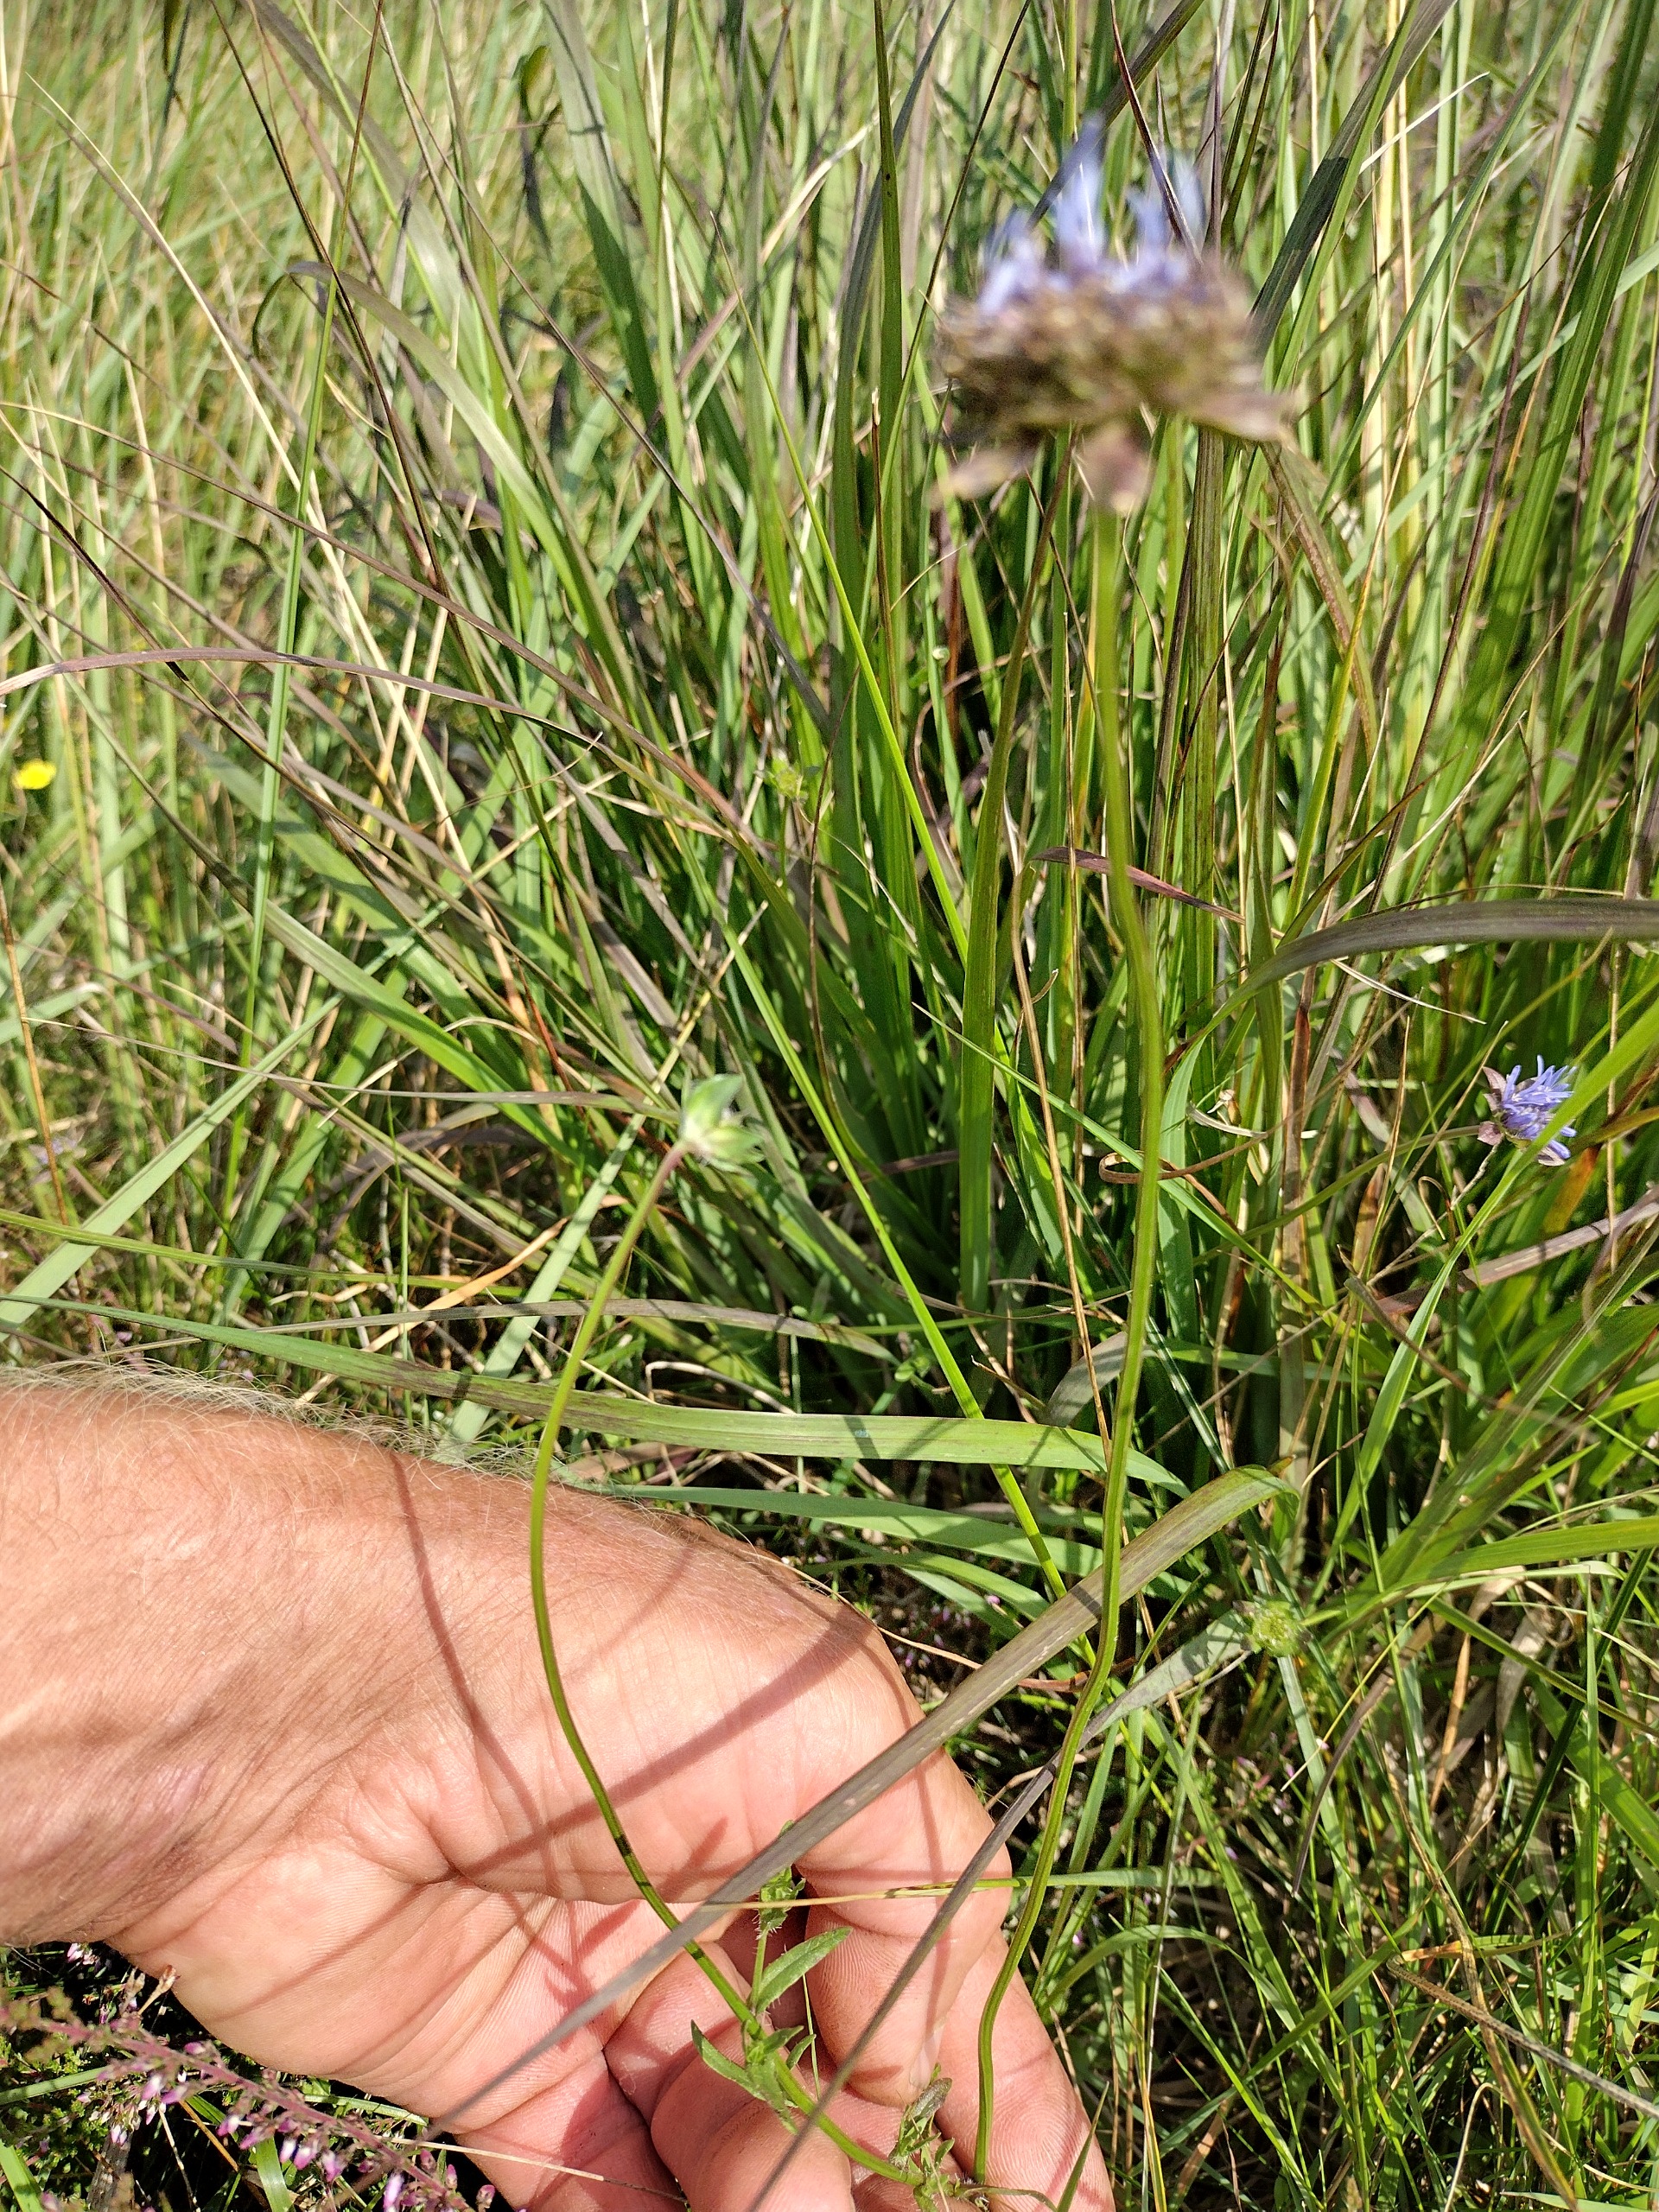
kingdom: Plantae
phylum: Tracheophyta
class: Magnoliopsida
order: Asterales
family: Campanulaceae
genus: Jasione
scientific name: Jasione montana
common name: Blåmunke
